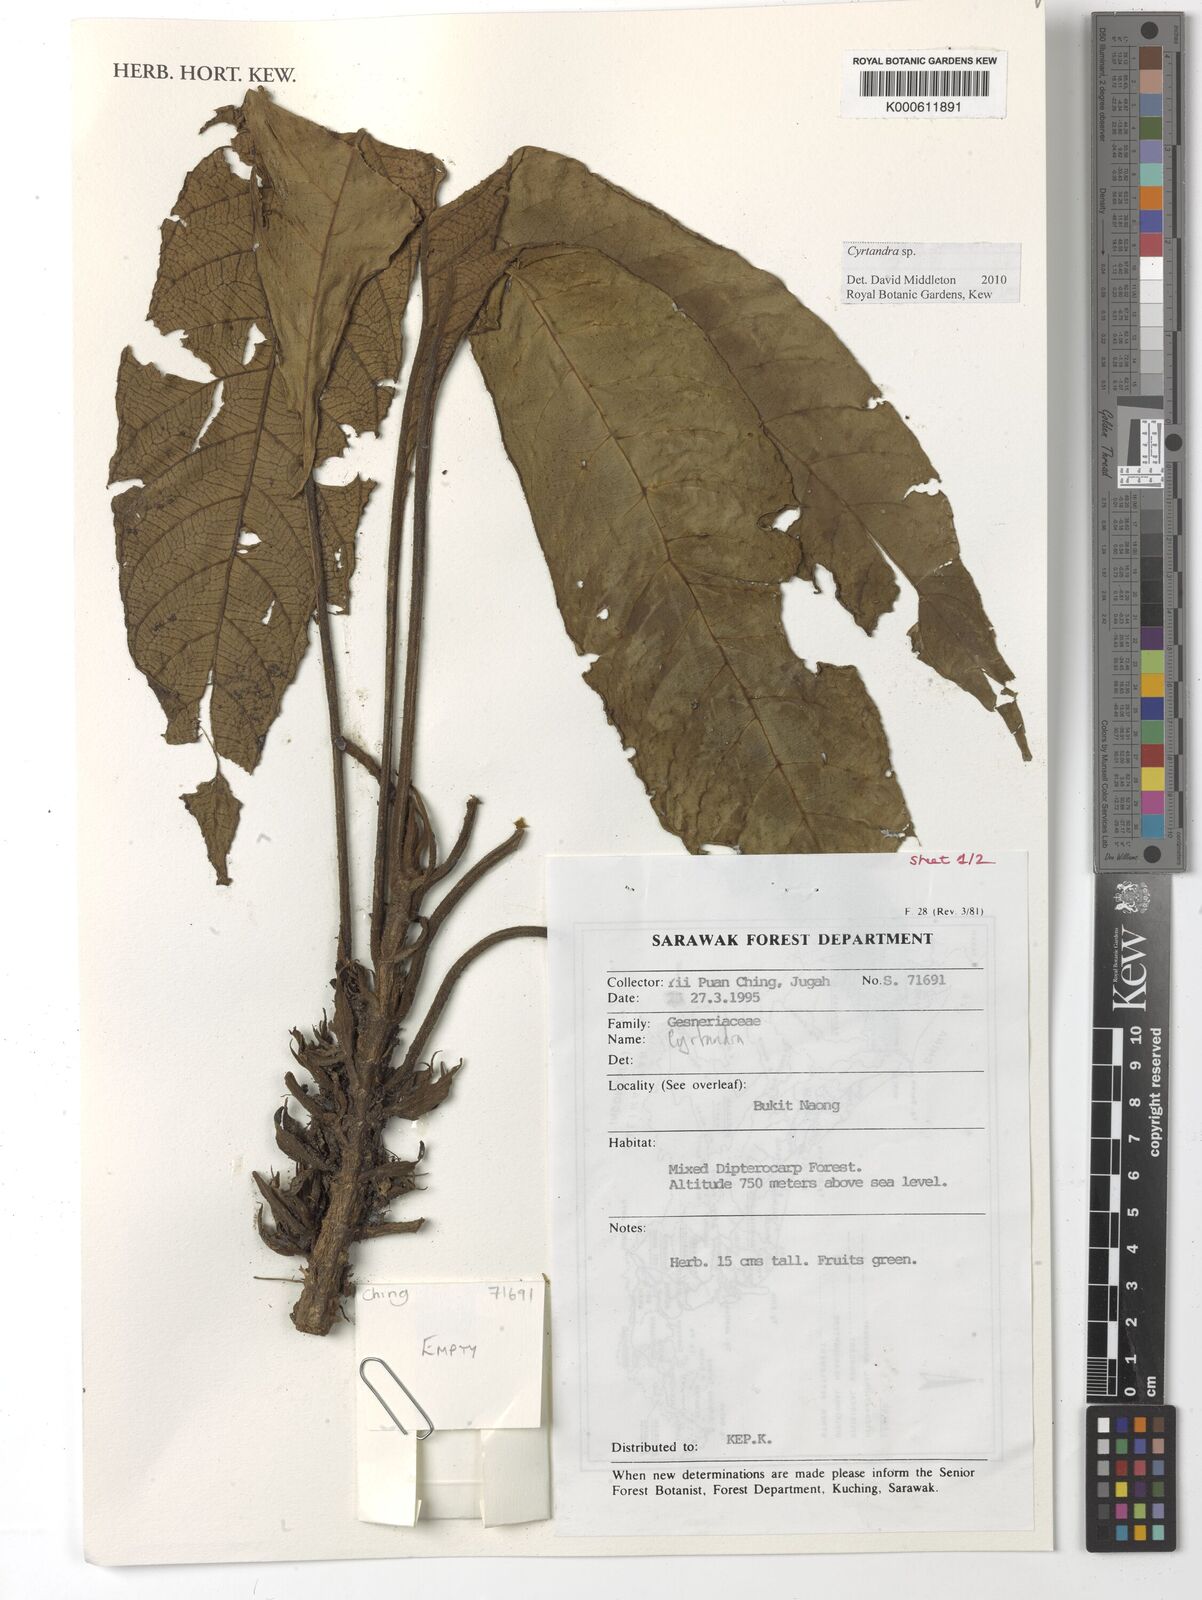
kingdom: Plantae
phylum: Tracheophyta
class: Magnoliopsida
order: Lamiales
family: Gesneriaceae
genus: Cyrtandra
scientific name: Cyrtandra
